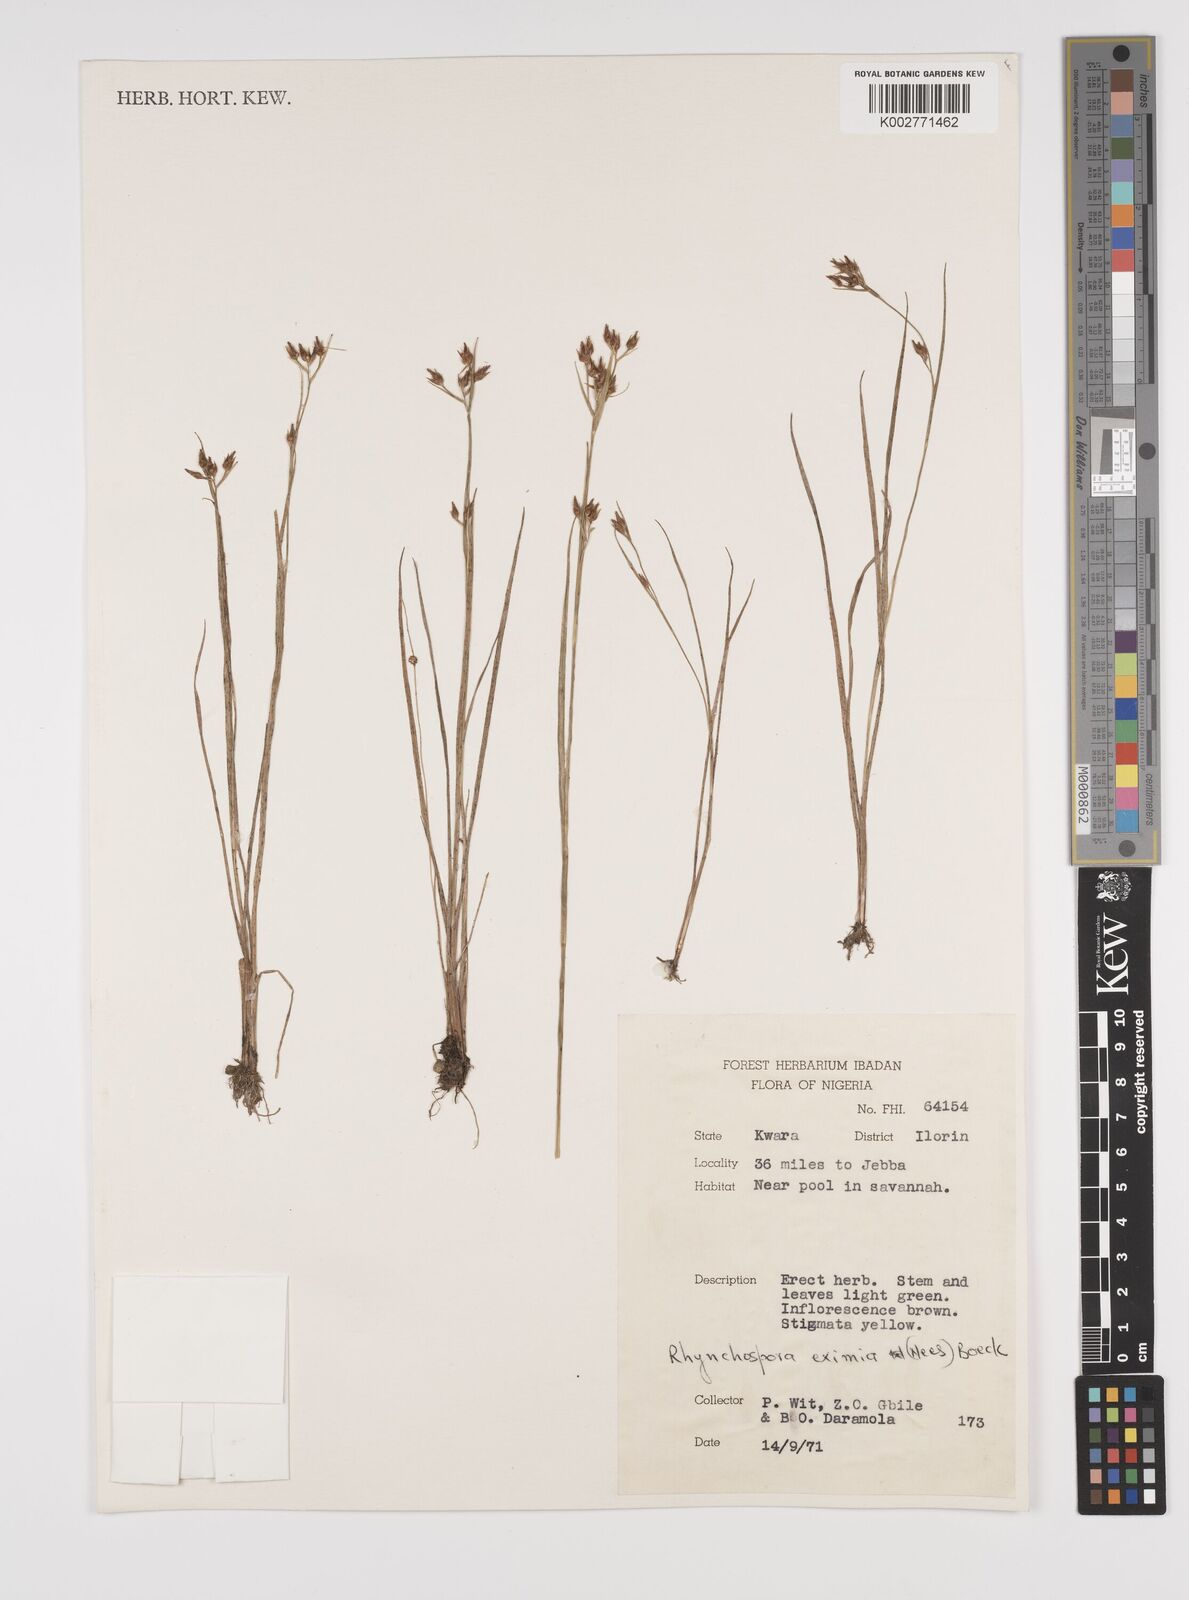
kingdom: Plantae
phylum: Tracheophyta
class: Liliopsida
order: Poales
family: Cyperaceae
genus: Rhynchospora
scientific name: Rhynchospora eximia
